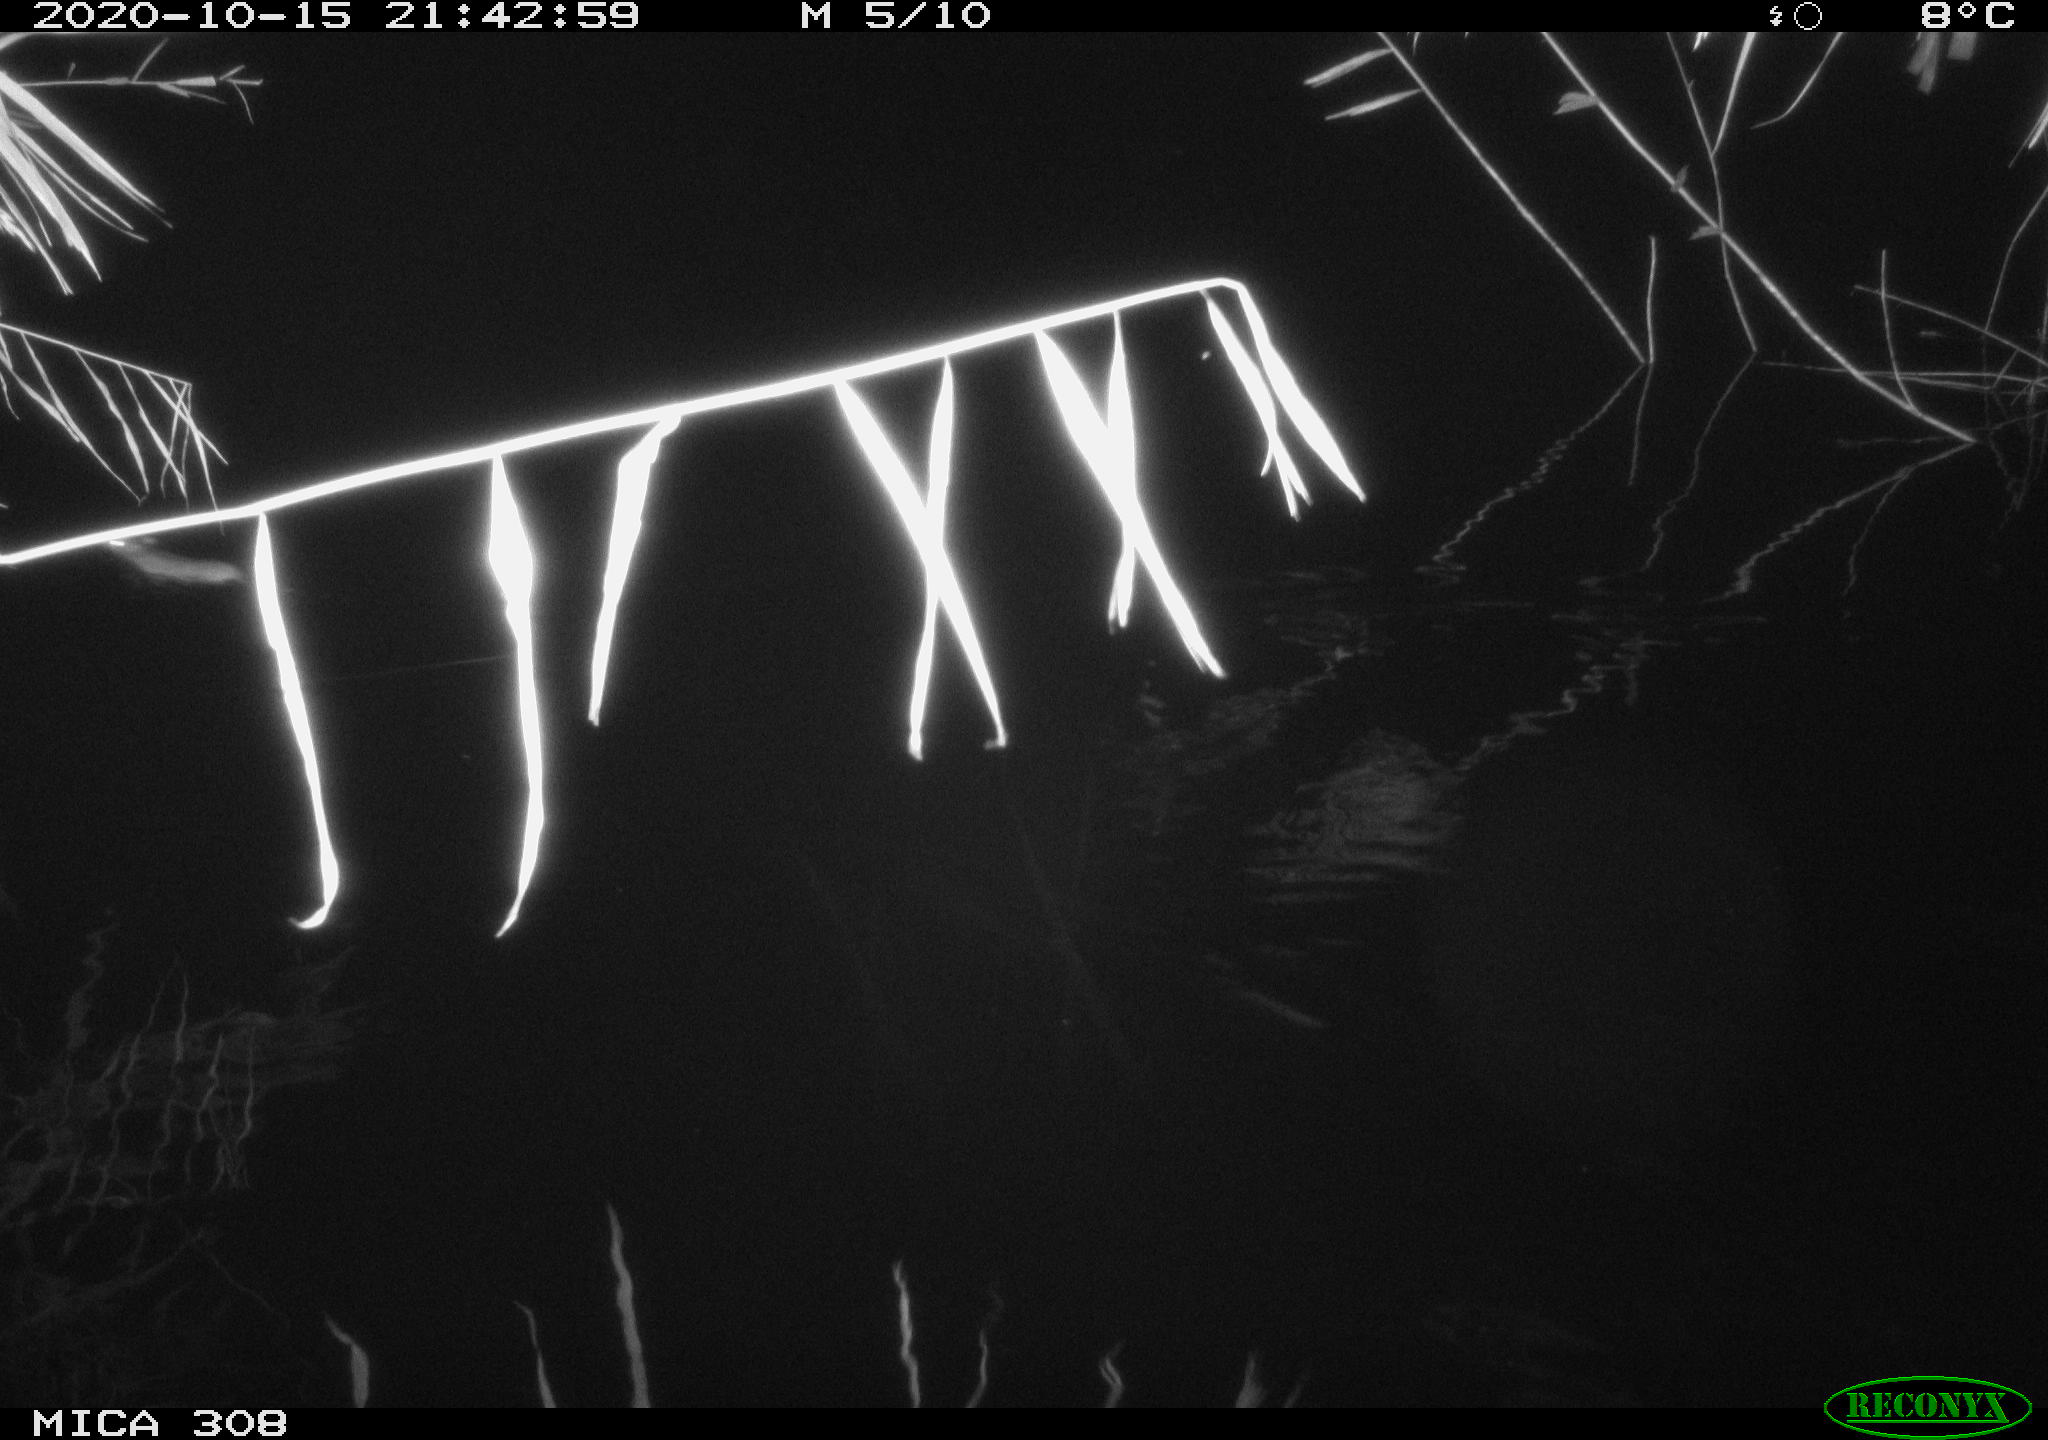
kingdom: Animalia
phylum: Chordata
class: Mammalia
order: Rodentia
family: Muridae
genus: Rattus
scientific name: Rattus norvegicus
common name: Brown rat
